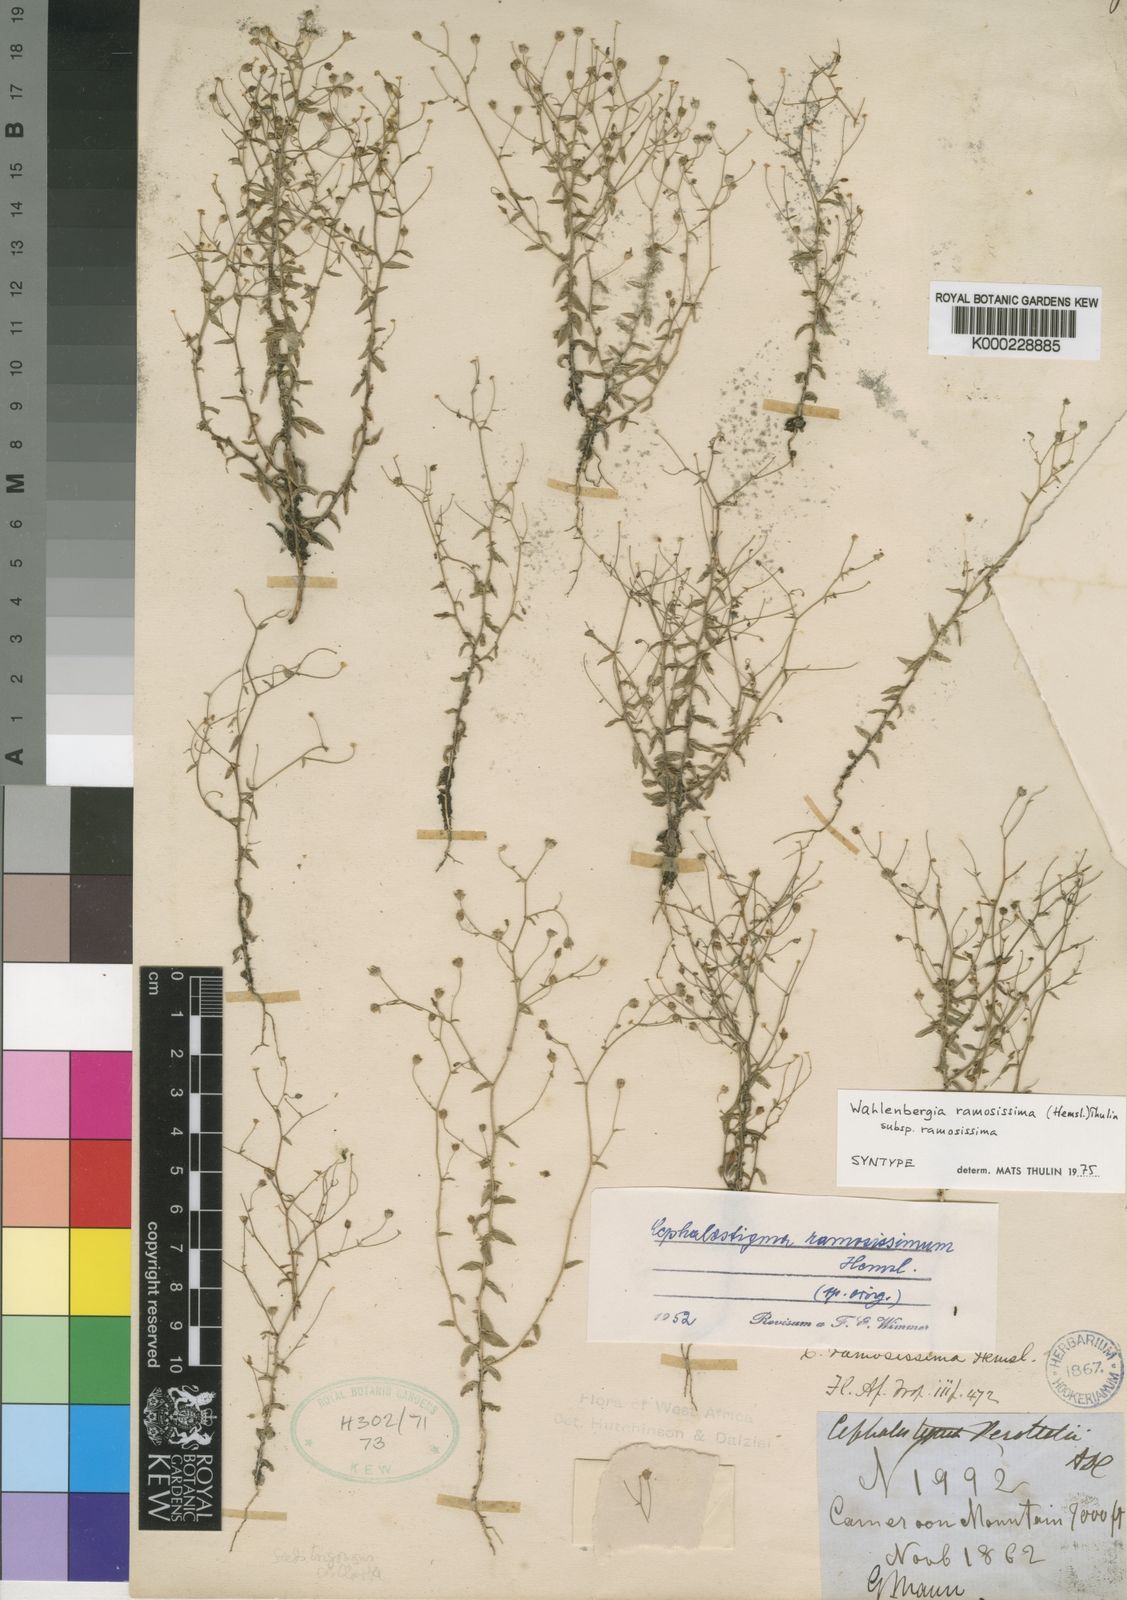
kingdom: Plantae
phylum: Tracheophyta
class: Magnoliopsida
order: Asterales
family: Campanulaceae
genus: Wahlenbergia
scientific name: Wahlenbergia ramosissima
